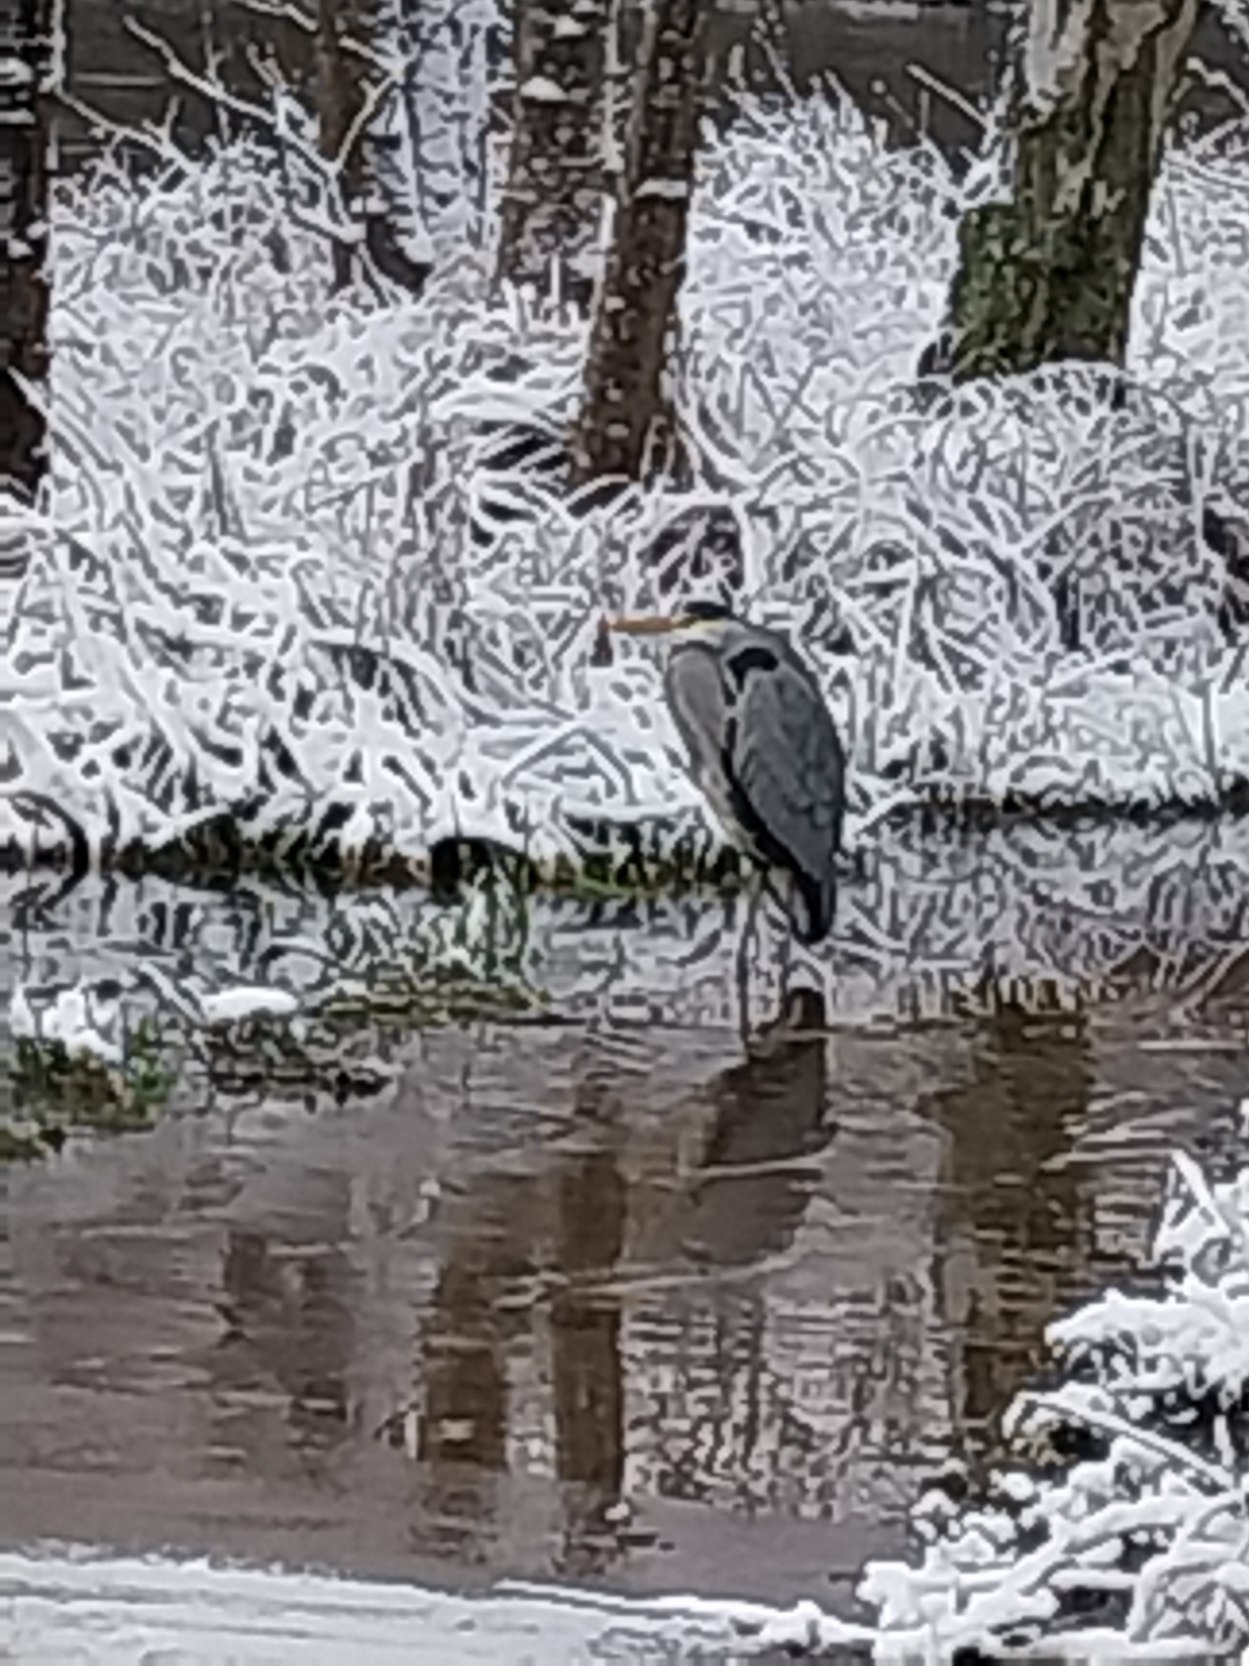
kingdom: Animalia
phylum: Chordata
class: Aves
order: Pelecaniformes
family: Ardeidae
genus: Ardea
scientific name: Ardea cinerea
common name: Fiskehejre
